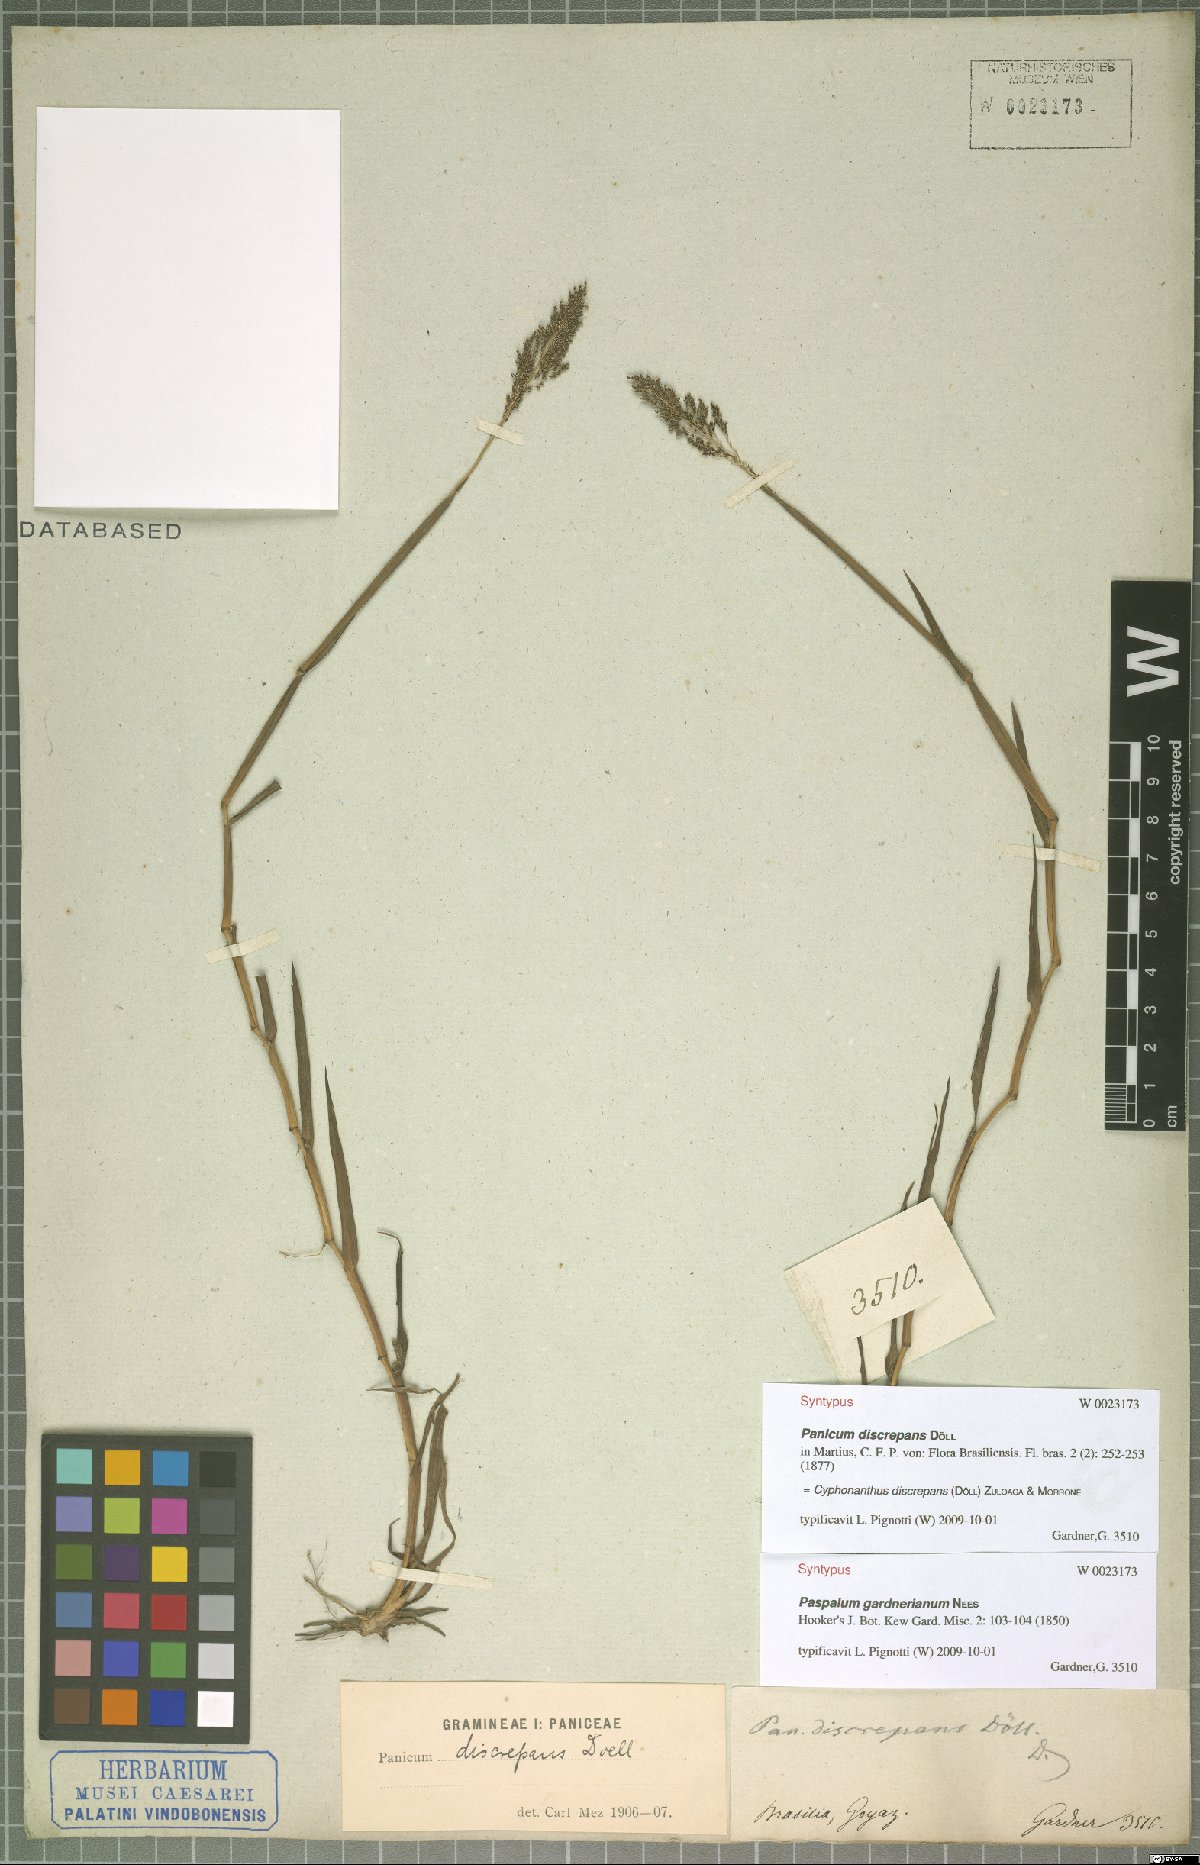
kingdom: Plantae
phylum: Tracheophyta
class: Liliopsida
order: Poales
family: Poaceae
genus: Cyphonanthus
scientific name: Cyphonanthus discrepans
